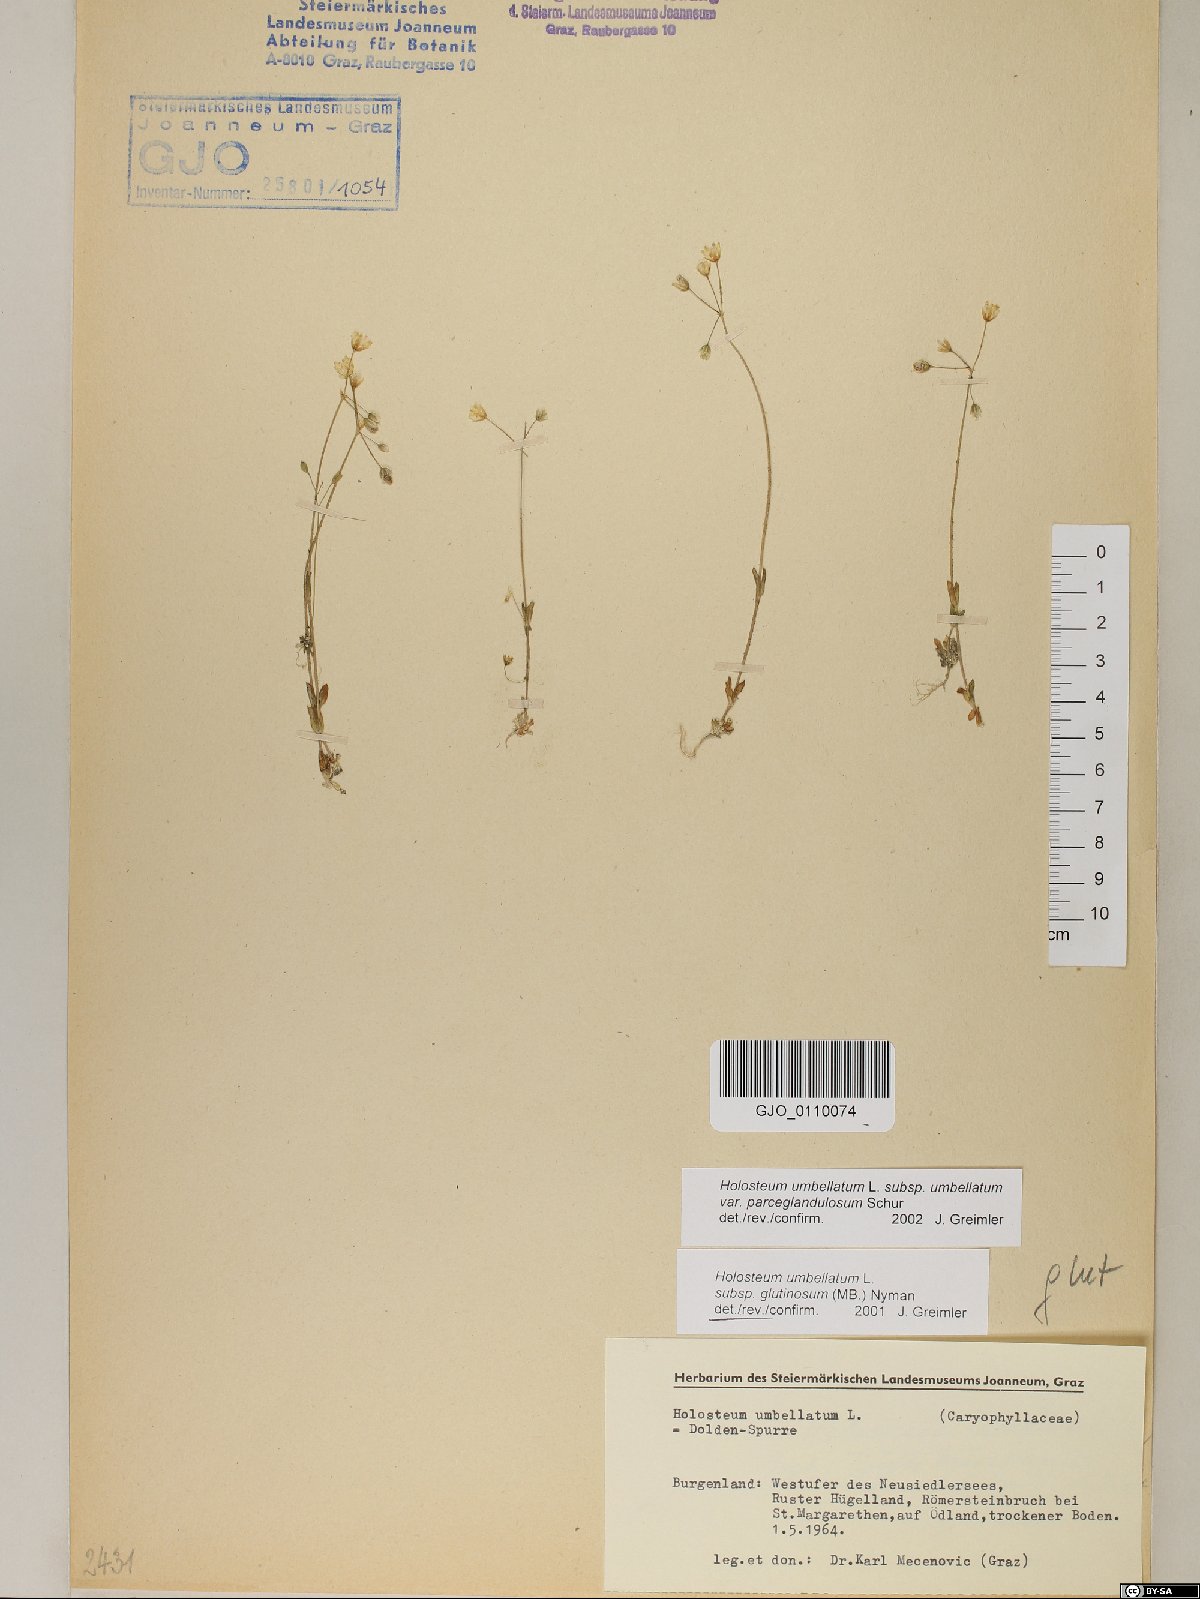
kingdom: Plantae
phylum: Tracheophyta
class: Magnoliopsida
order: Caryophyllales
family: Caryophyllaceae
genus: Holosteum
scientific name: Holosteum umbellatum
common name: Jagged chickweed
